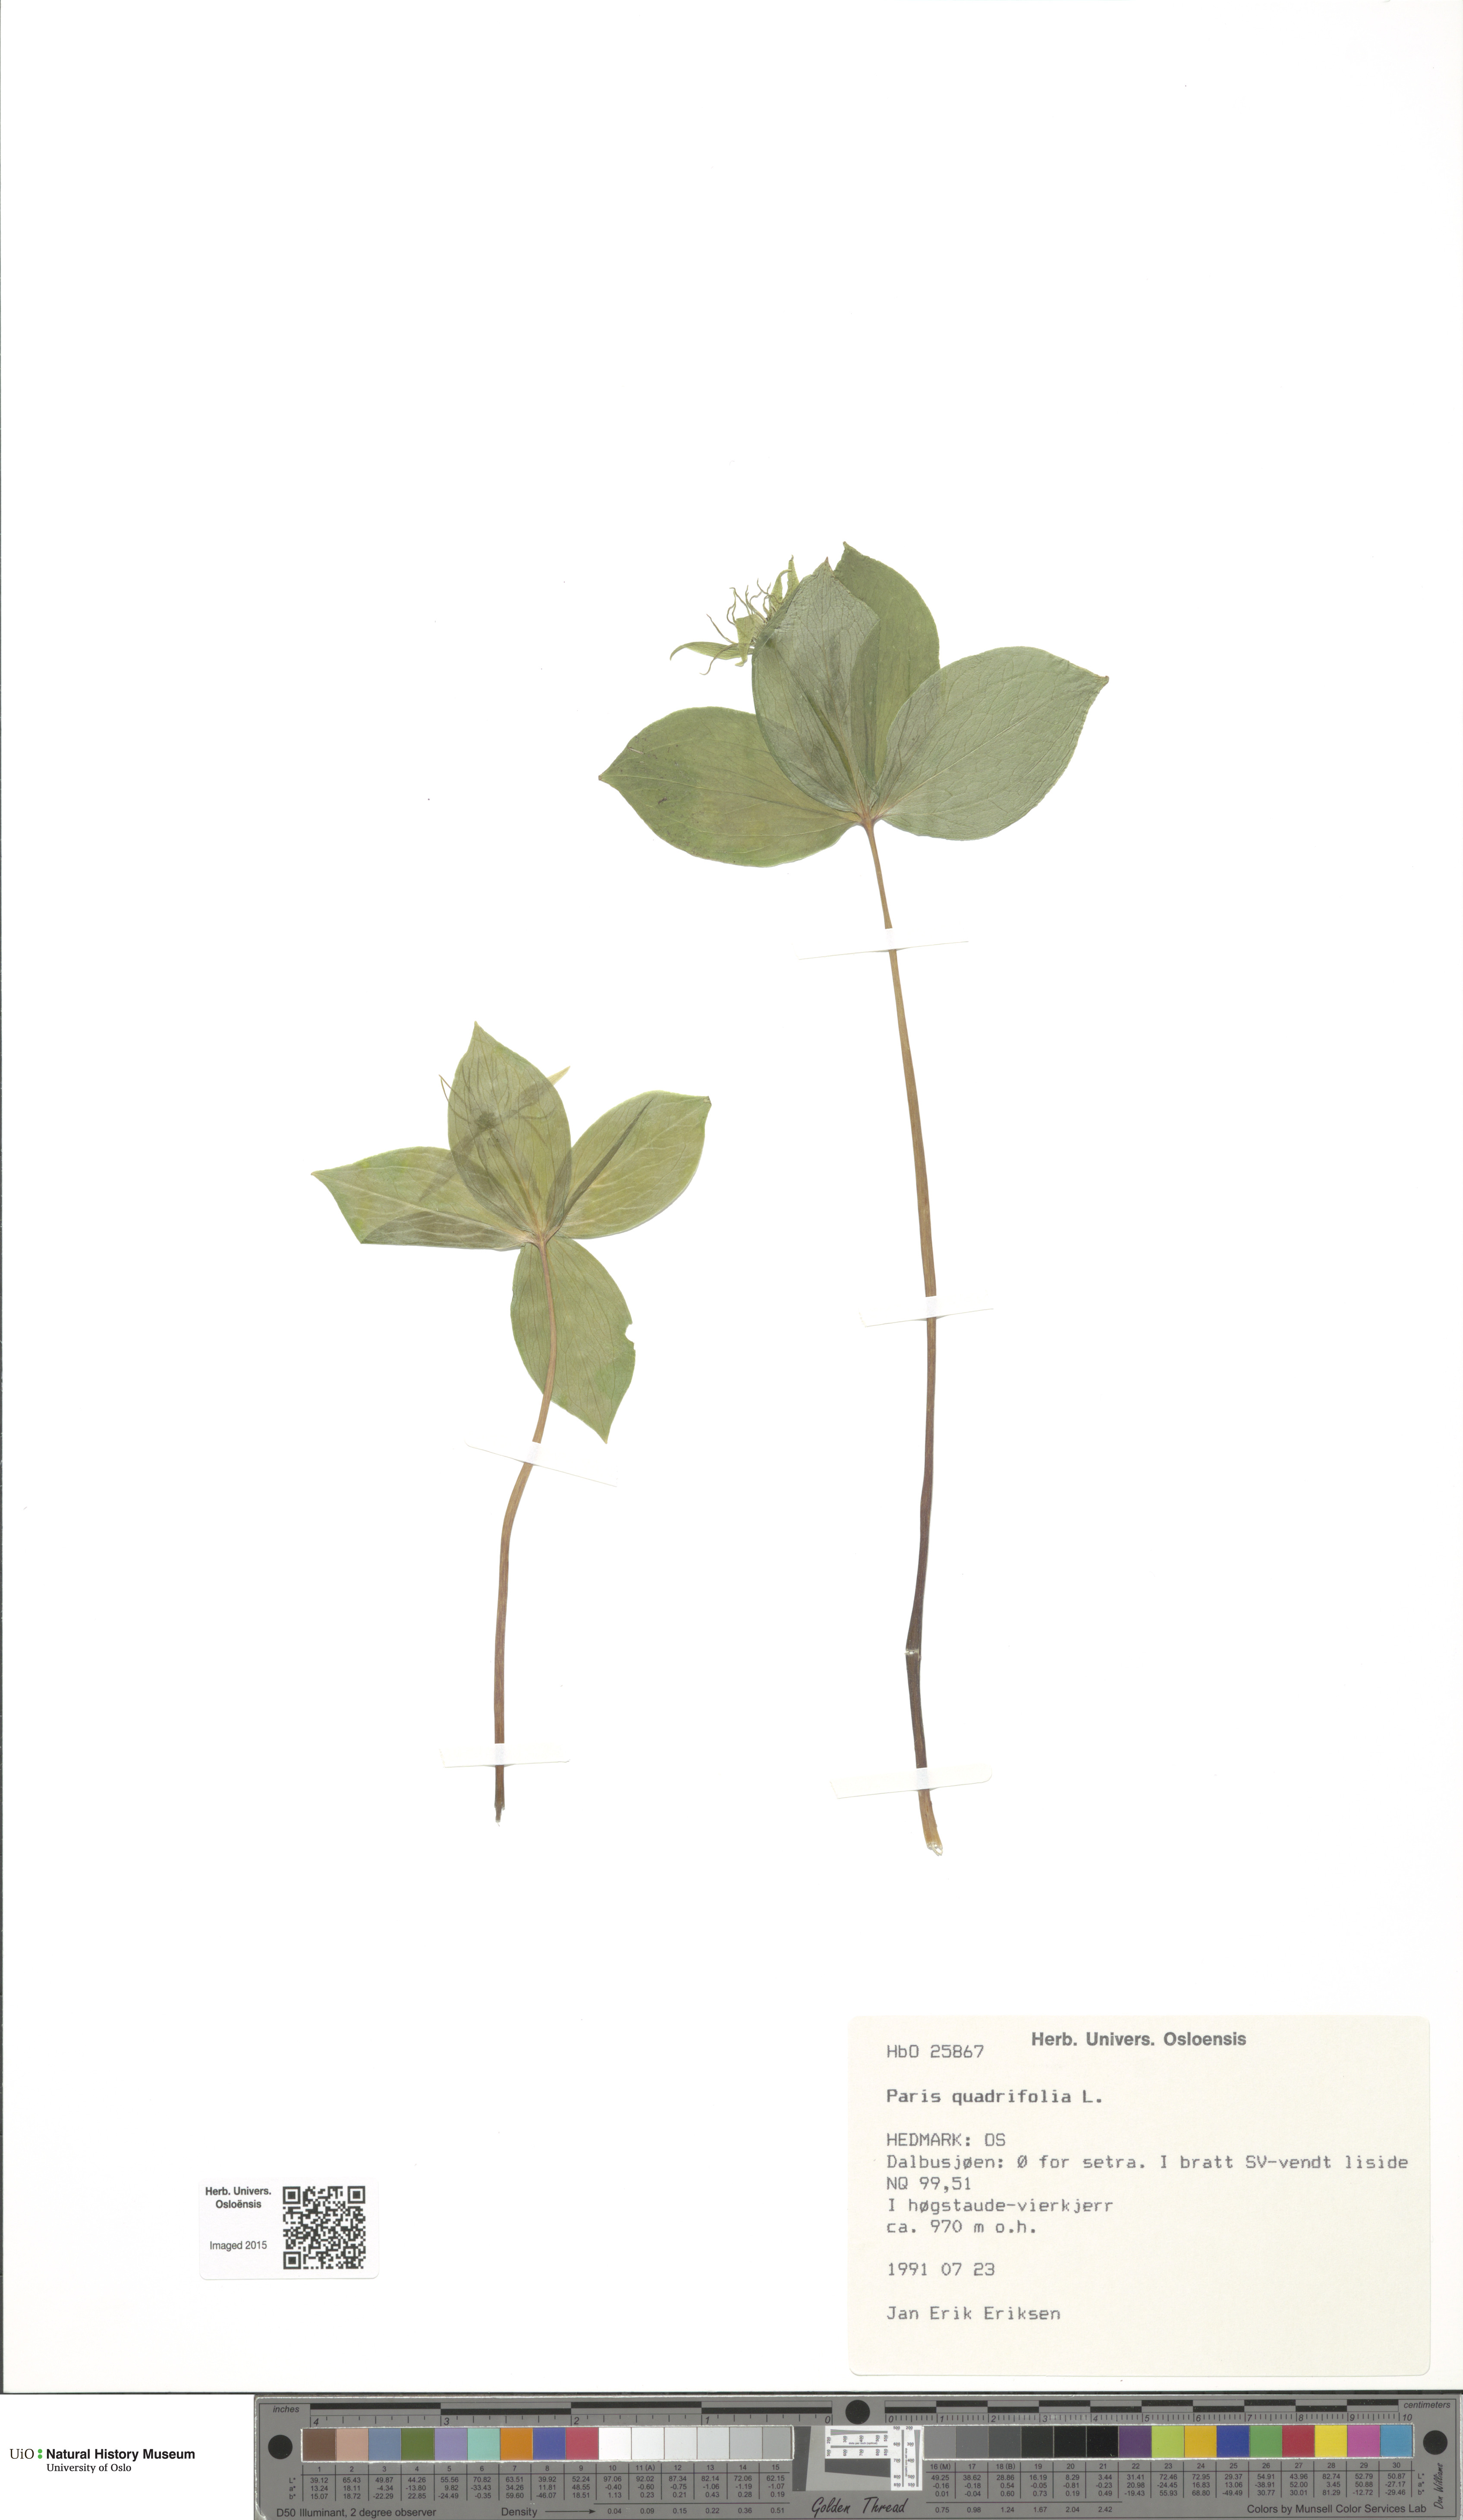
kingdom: Plantae
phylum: Tracheophyta
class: Liliopsida
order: Liliales
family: Melanthiaceae
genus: Paris
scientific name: Paris quadrifolia
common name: Herb-paris
